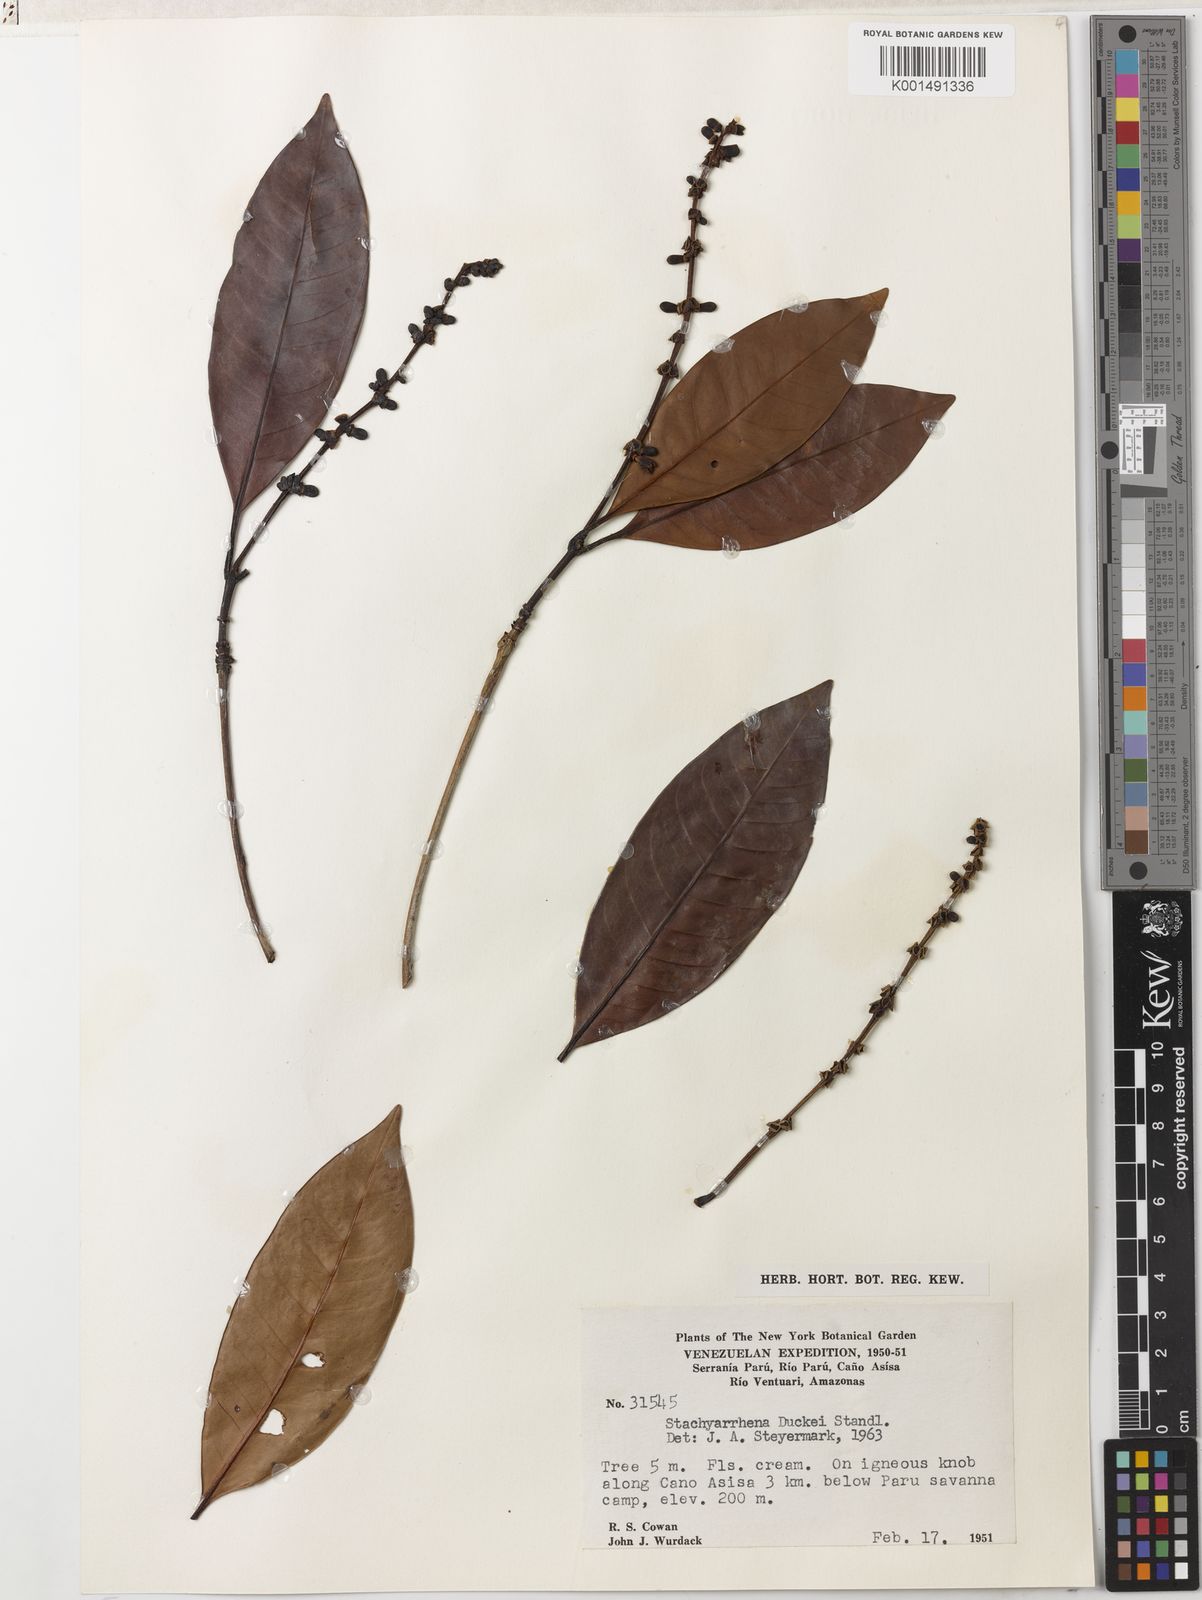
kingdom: Plantae
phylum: Tracheophyta
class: Magnoliopsida
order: Gentianales
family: Rubiaceae
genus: Stachyarrhena
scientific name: Stachyarrhena duckei
